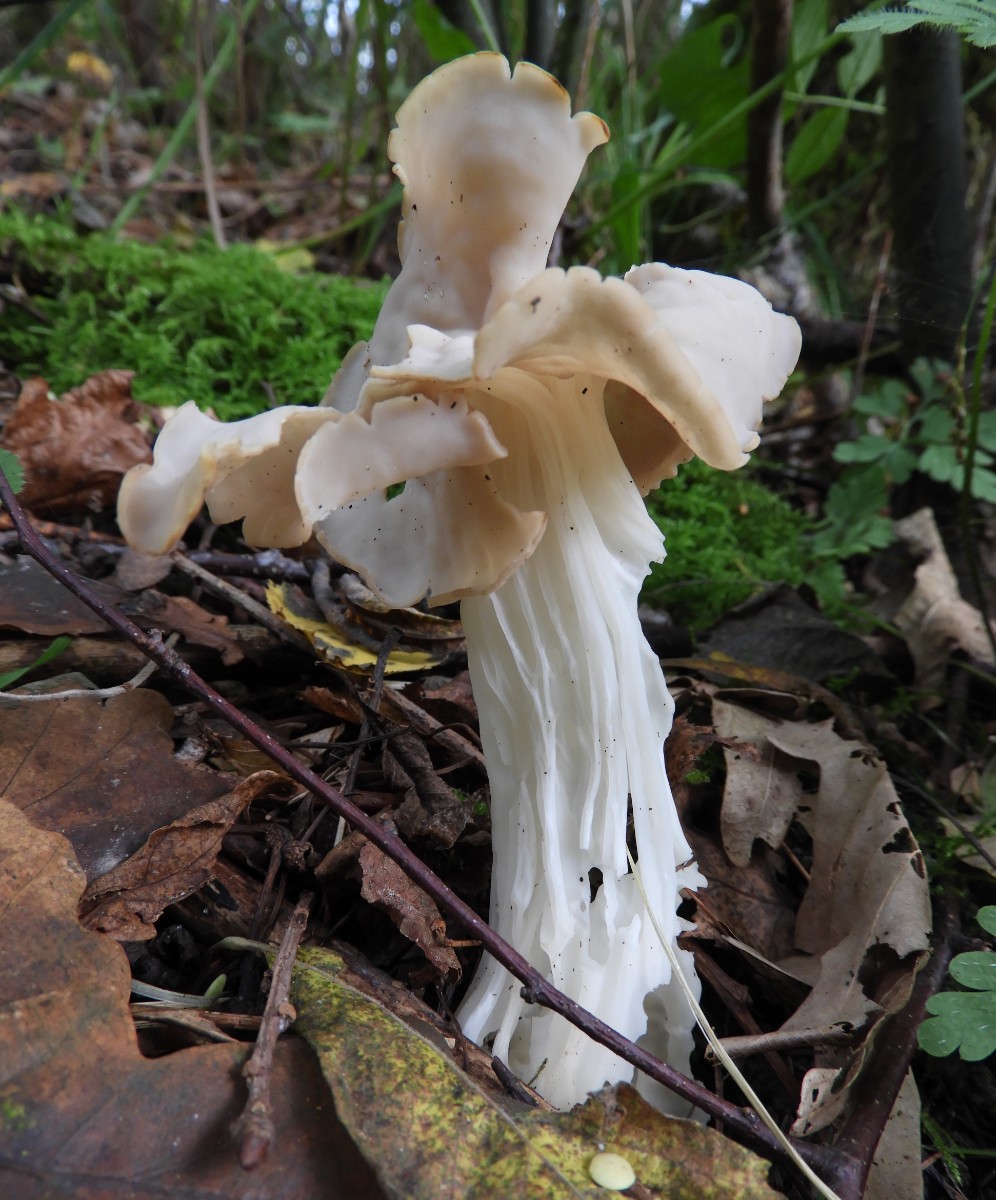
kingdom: Fungi
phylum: Ascomycota
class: Pezizomycetes
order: Pezizales
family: Helvellaceae
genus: Helvella
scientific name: Helvella crispa
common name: kruset foldhat
